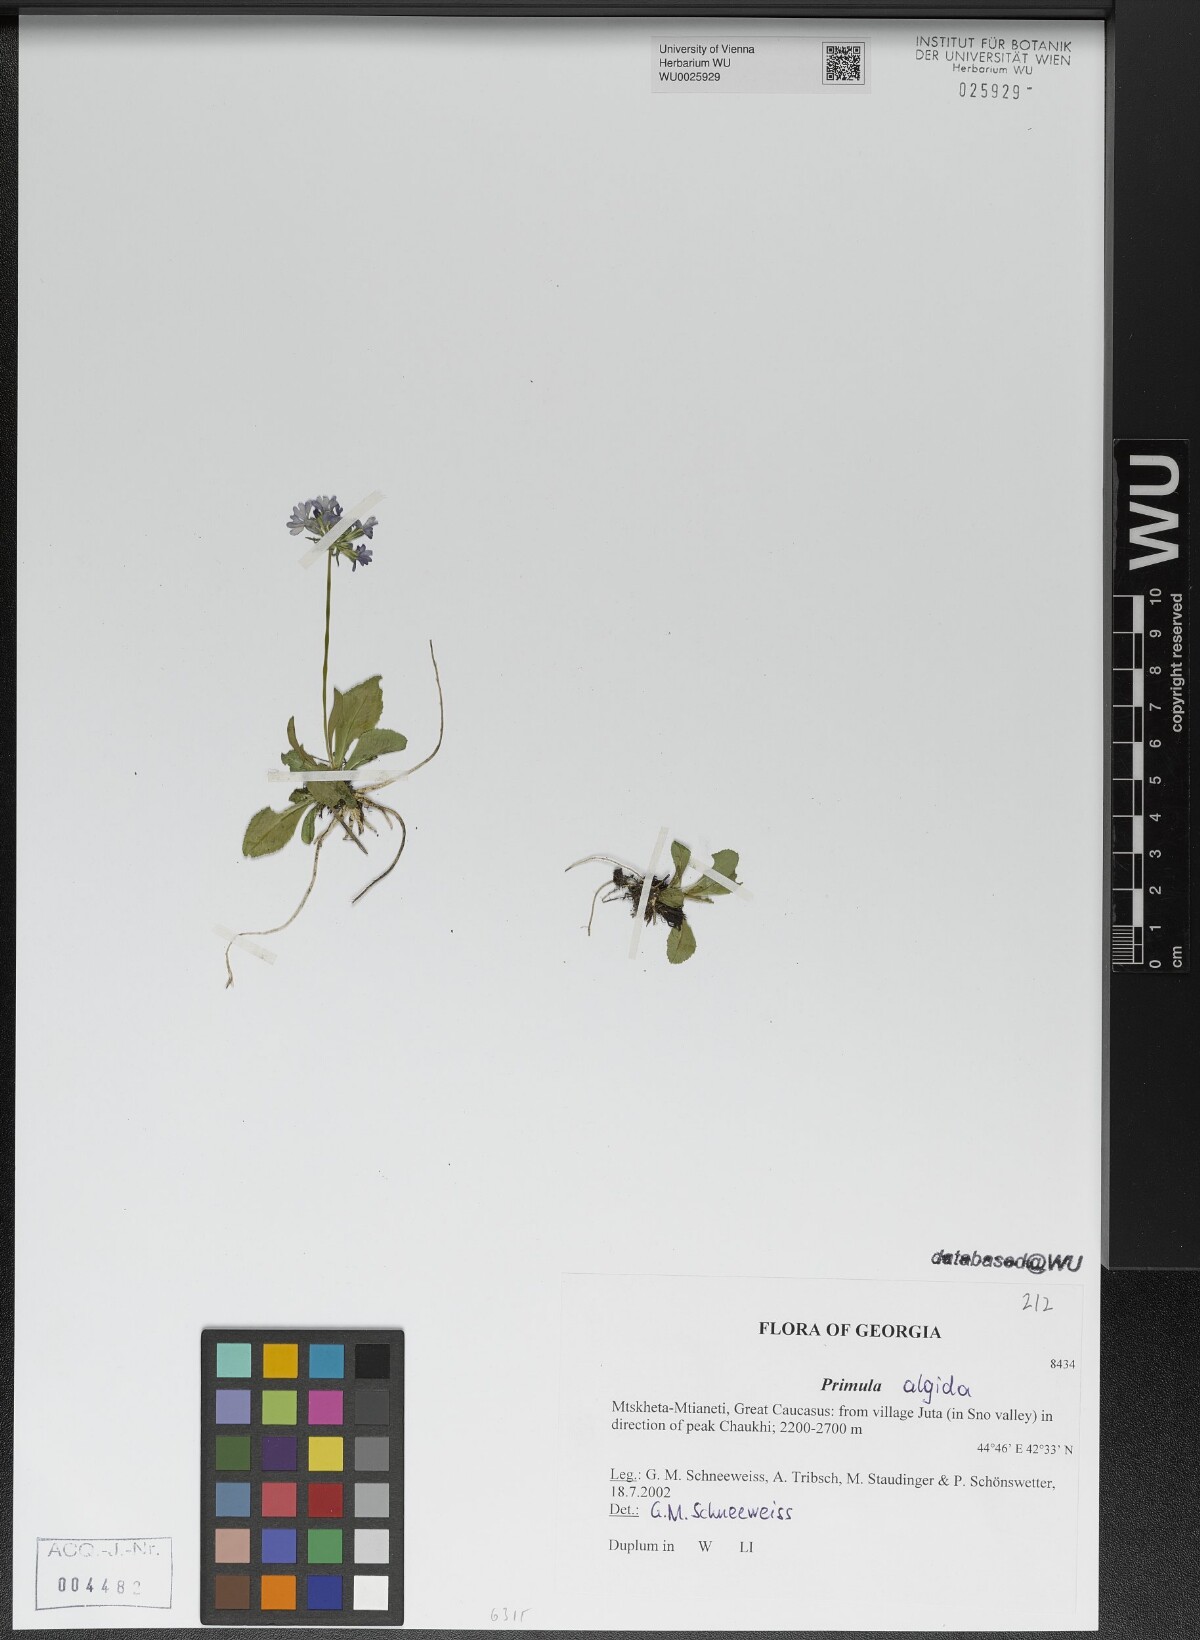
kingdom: Plantae
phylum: Tracheophyta
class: Magnoliopsida
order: Ericales
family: Primulaceae
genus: Primula
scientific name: Primula algida
